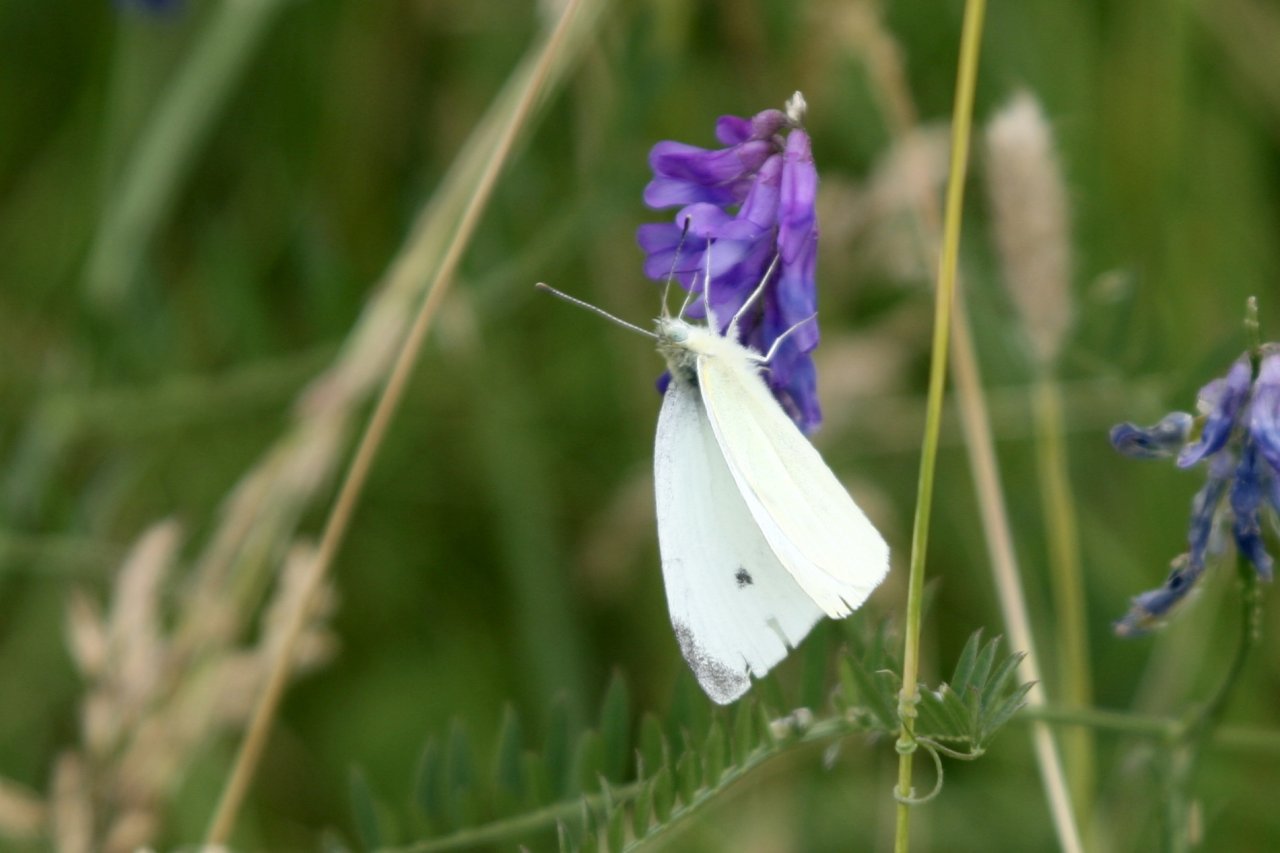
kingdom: Animalia
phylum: Arthropoda
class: Insecta
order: Lepidoptera
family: Pieridae
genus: Pieris
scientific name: Pieris rapae
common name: Cabbage White
